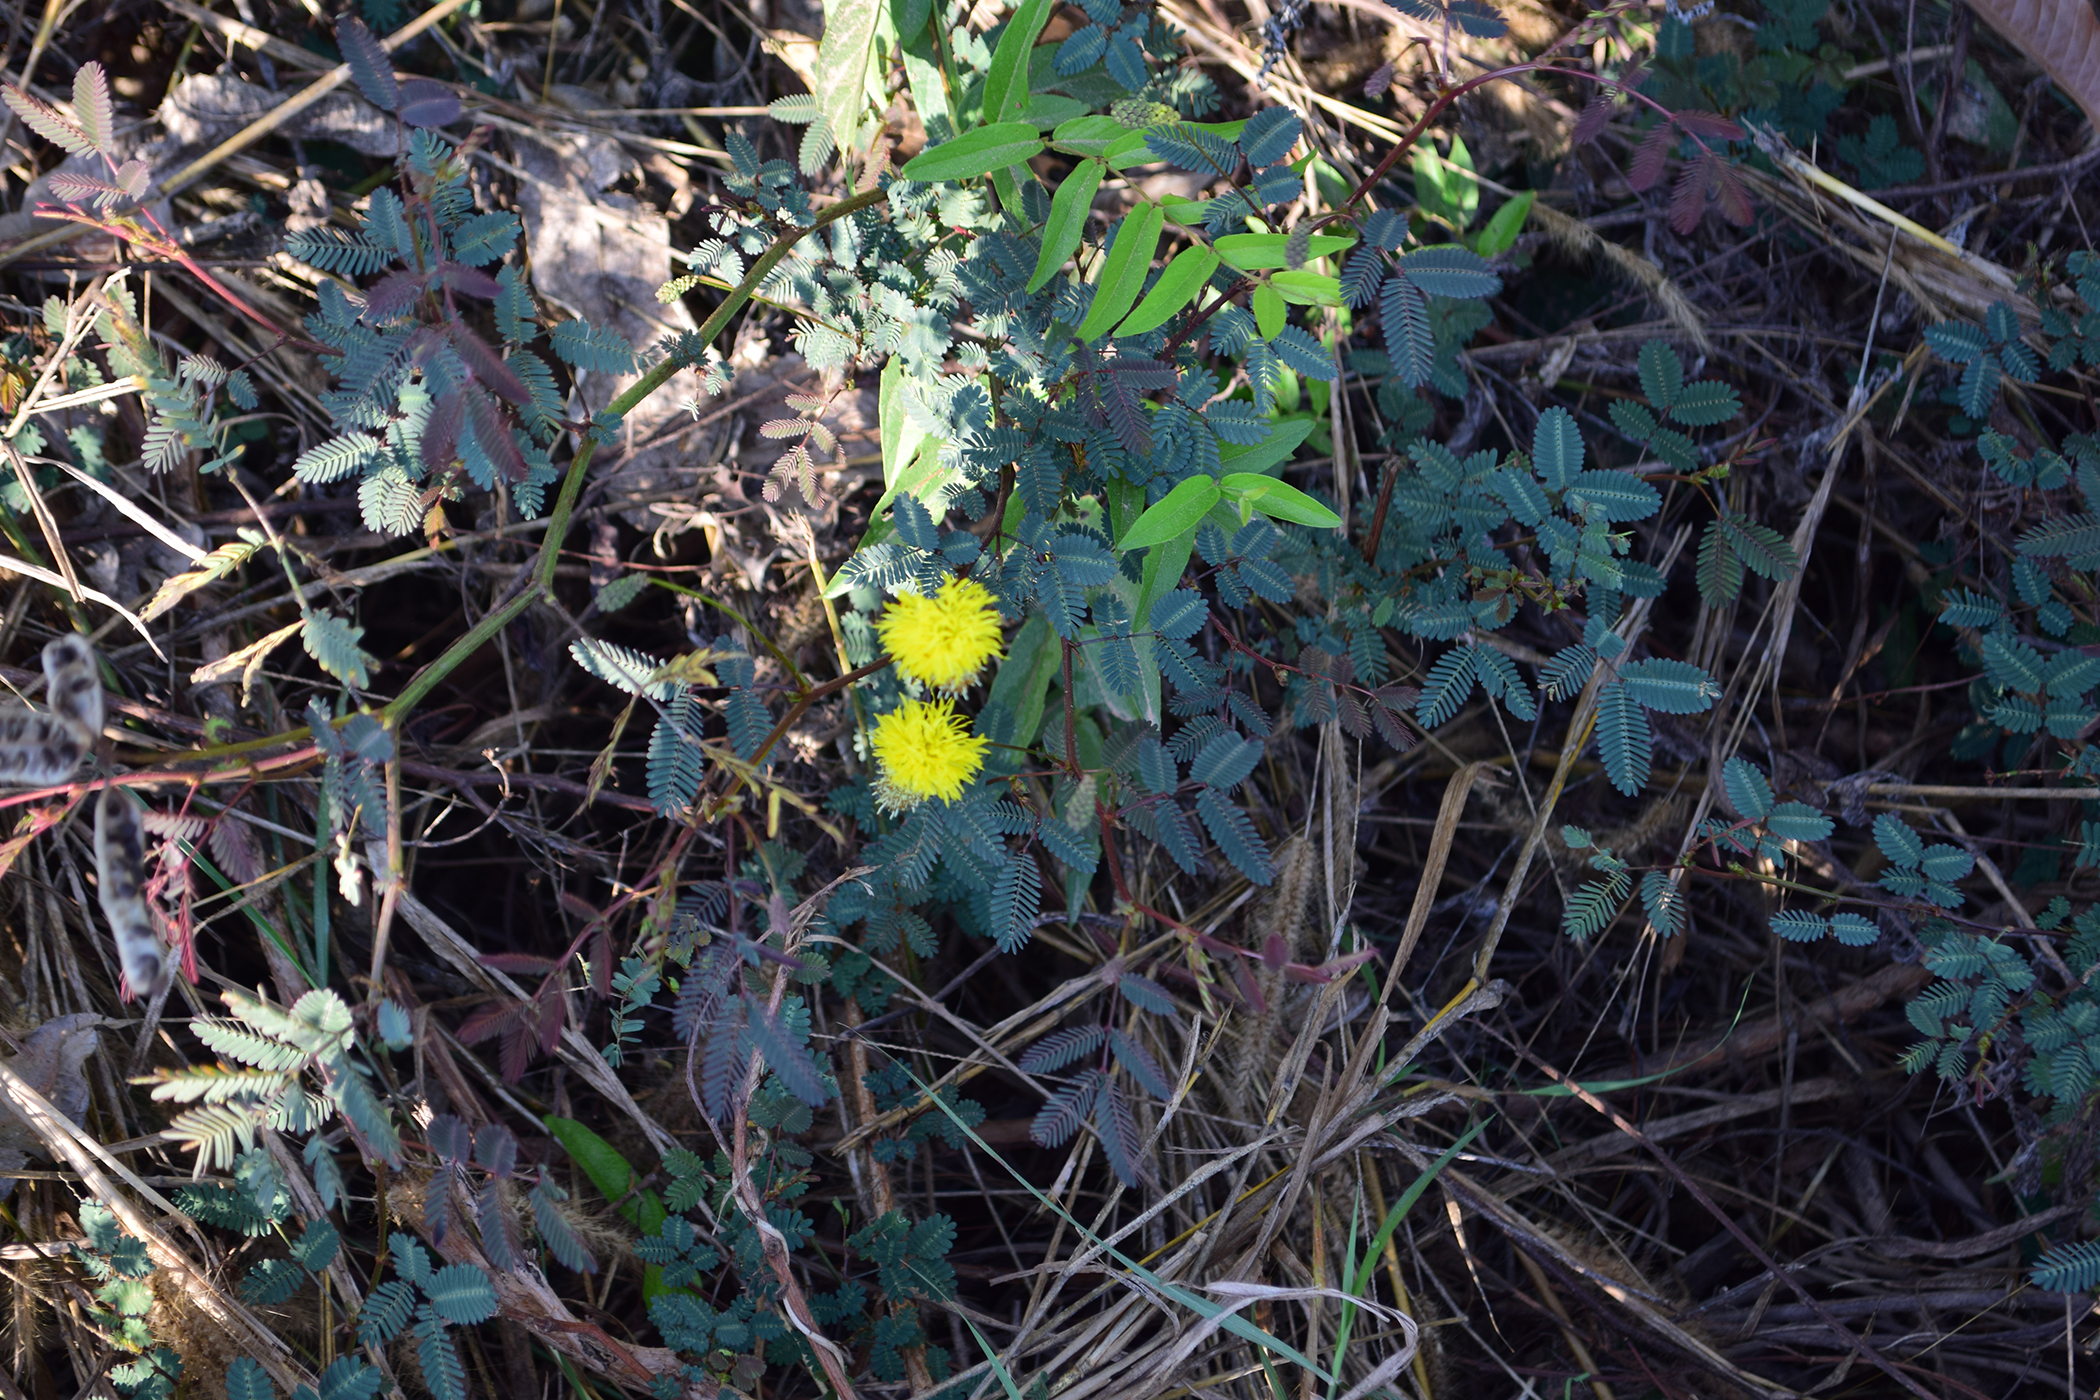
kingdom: Plantae
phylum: Tracheophyta
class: Magnoliopsida
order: Fabales
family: Fabaceae
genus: Neptunia
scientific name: Neptunia plena
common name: Dead and awake
